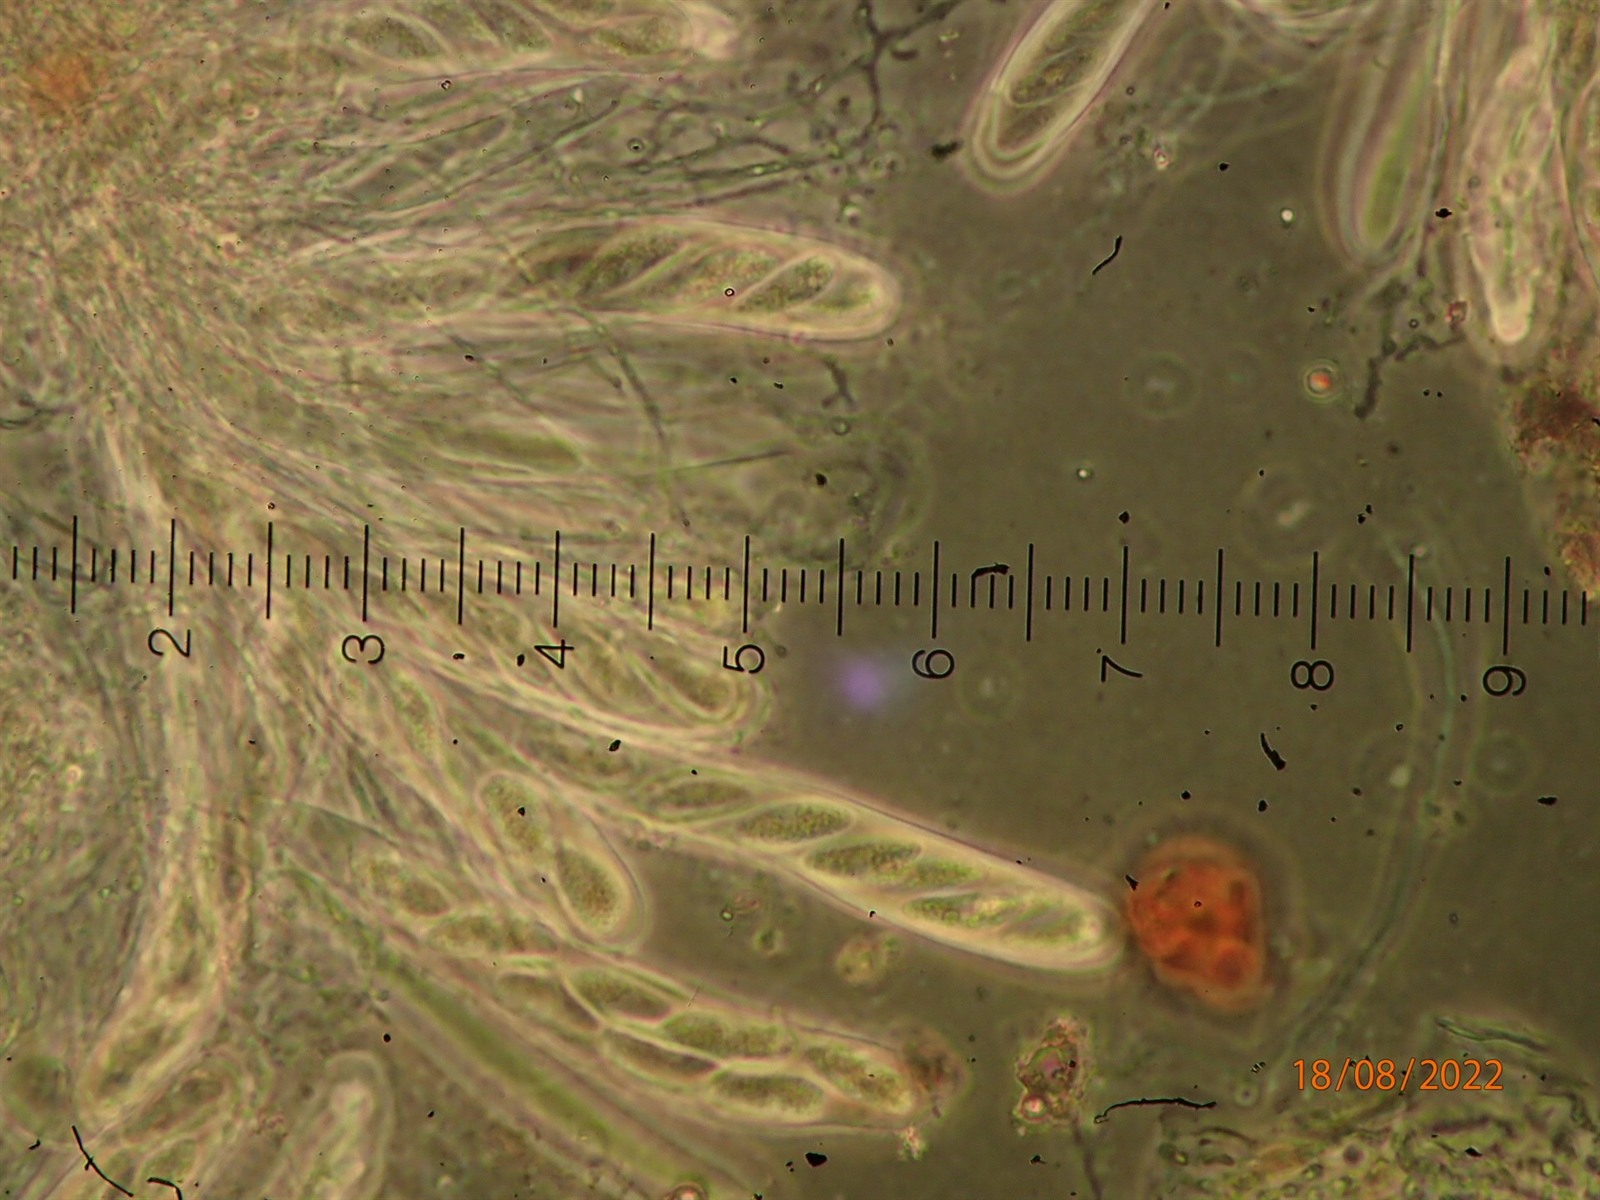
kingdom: Fungi
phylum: Ascomycota
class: Leotiomycetes
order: Chaetomellales
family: Marthamycetaceae
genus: Propolis
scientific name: Propolis farinosa
